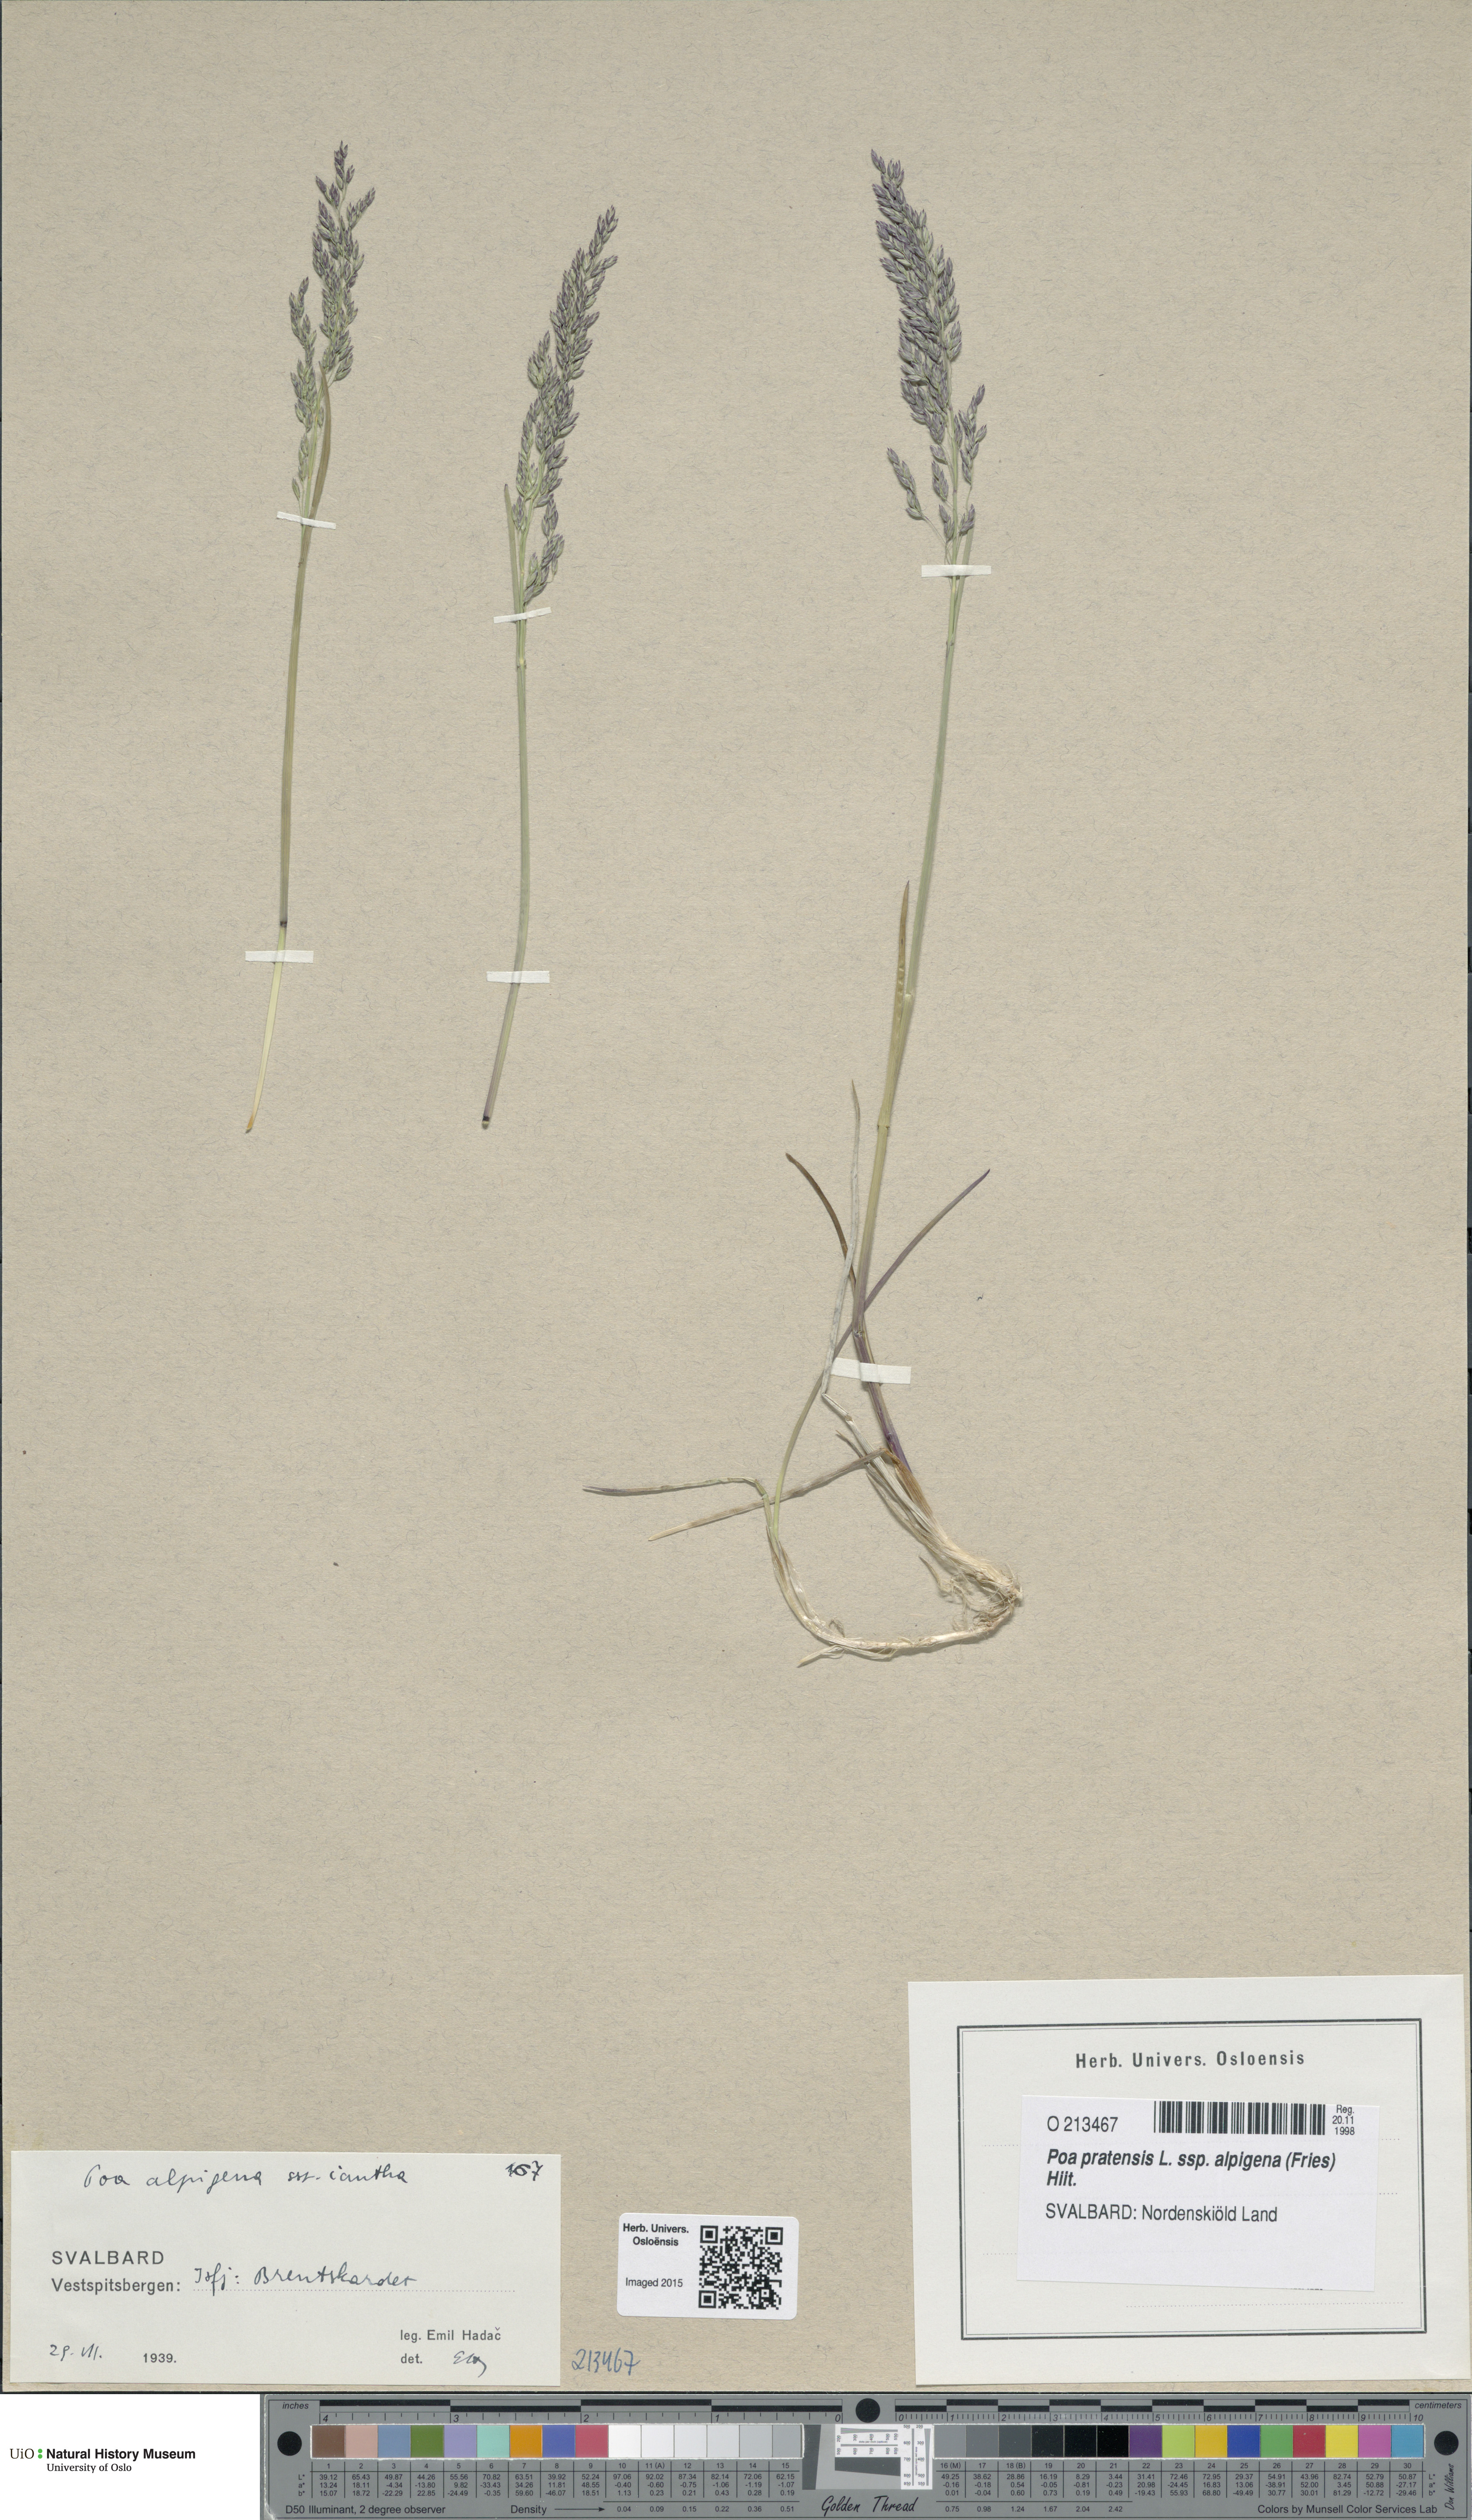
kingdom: Plantae
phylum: Tracheophyta
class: Liliopsida
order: Poales
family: Poaceae
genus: Poa
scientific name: Poa alpigena
